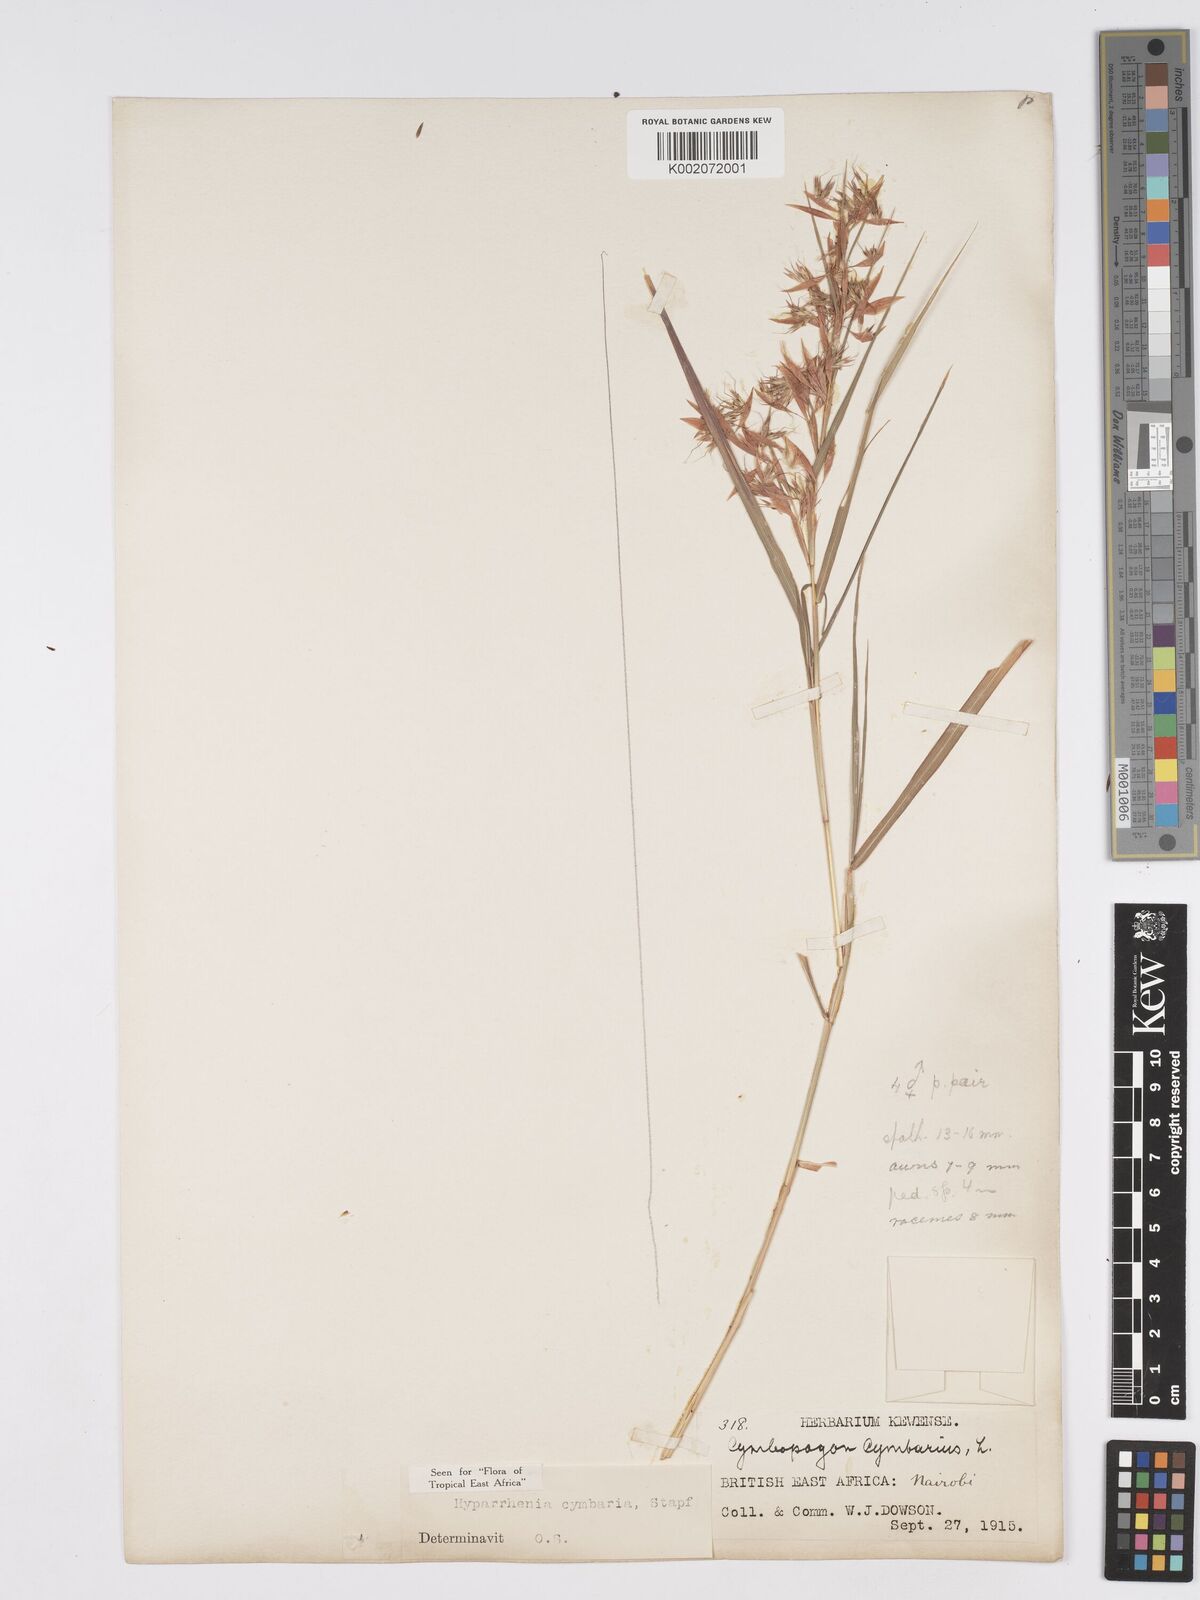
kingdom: Plantae
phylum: Tracheophyta
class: Liliopsida
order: Poales
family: Poaceae
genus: Hyparrhenia
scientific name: Hyparrhenia cymbaria
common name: Boat thatching grass
